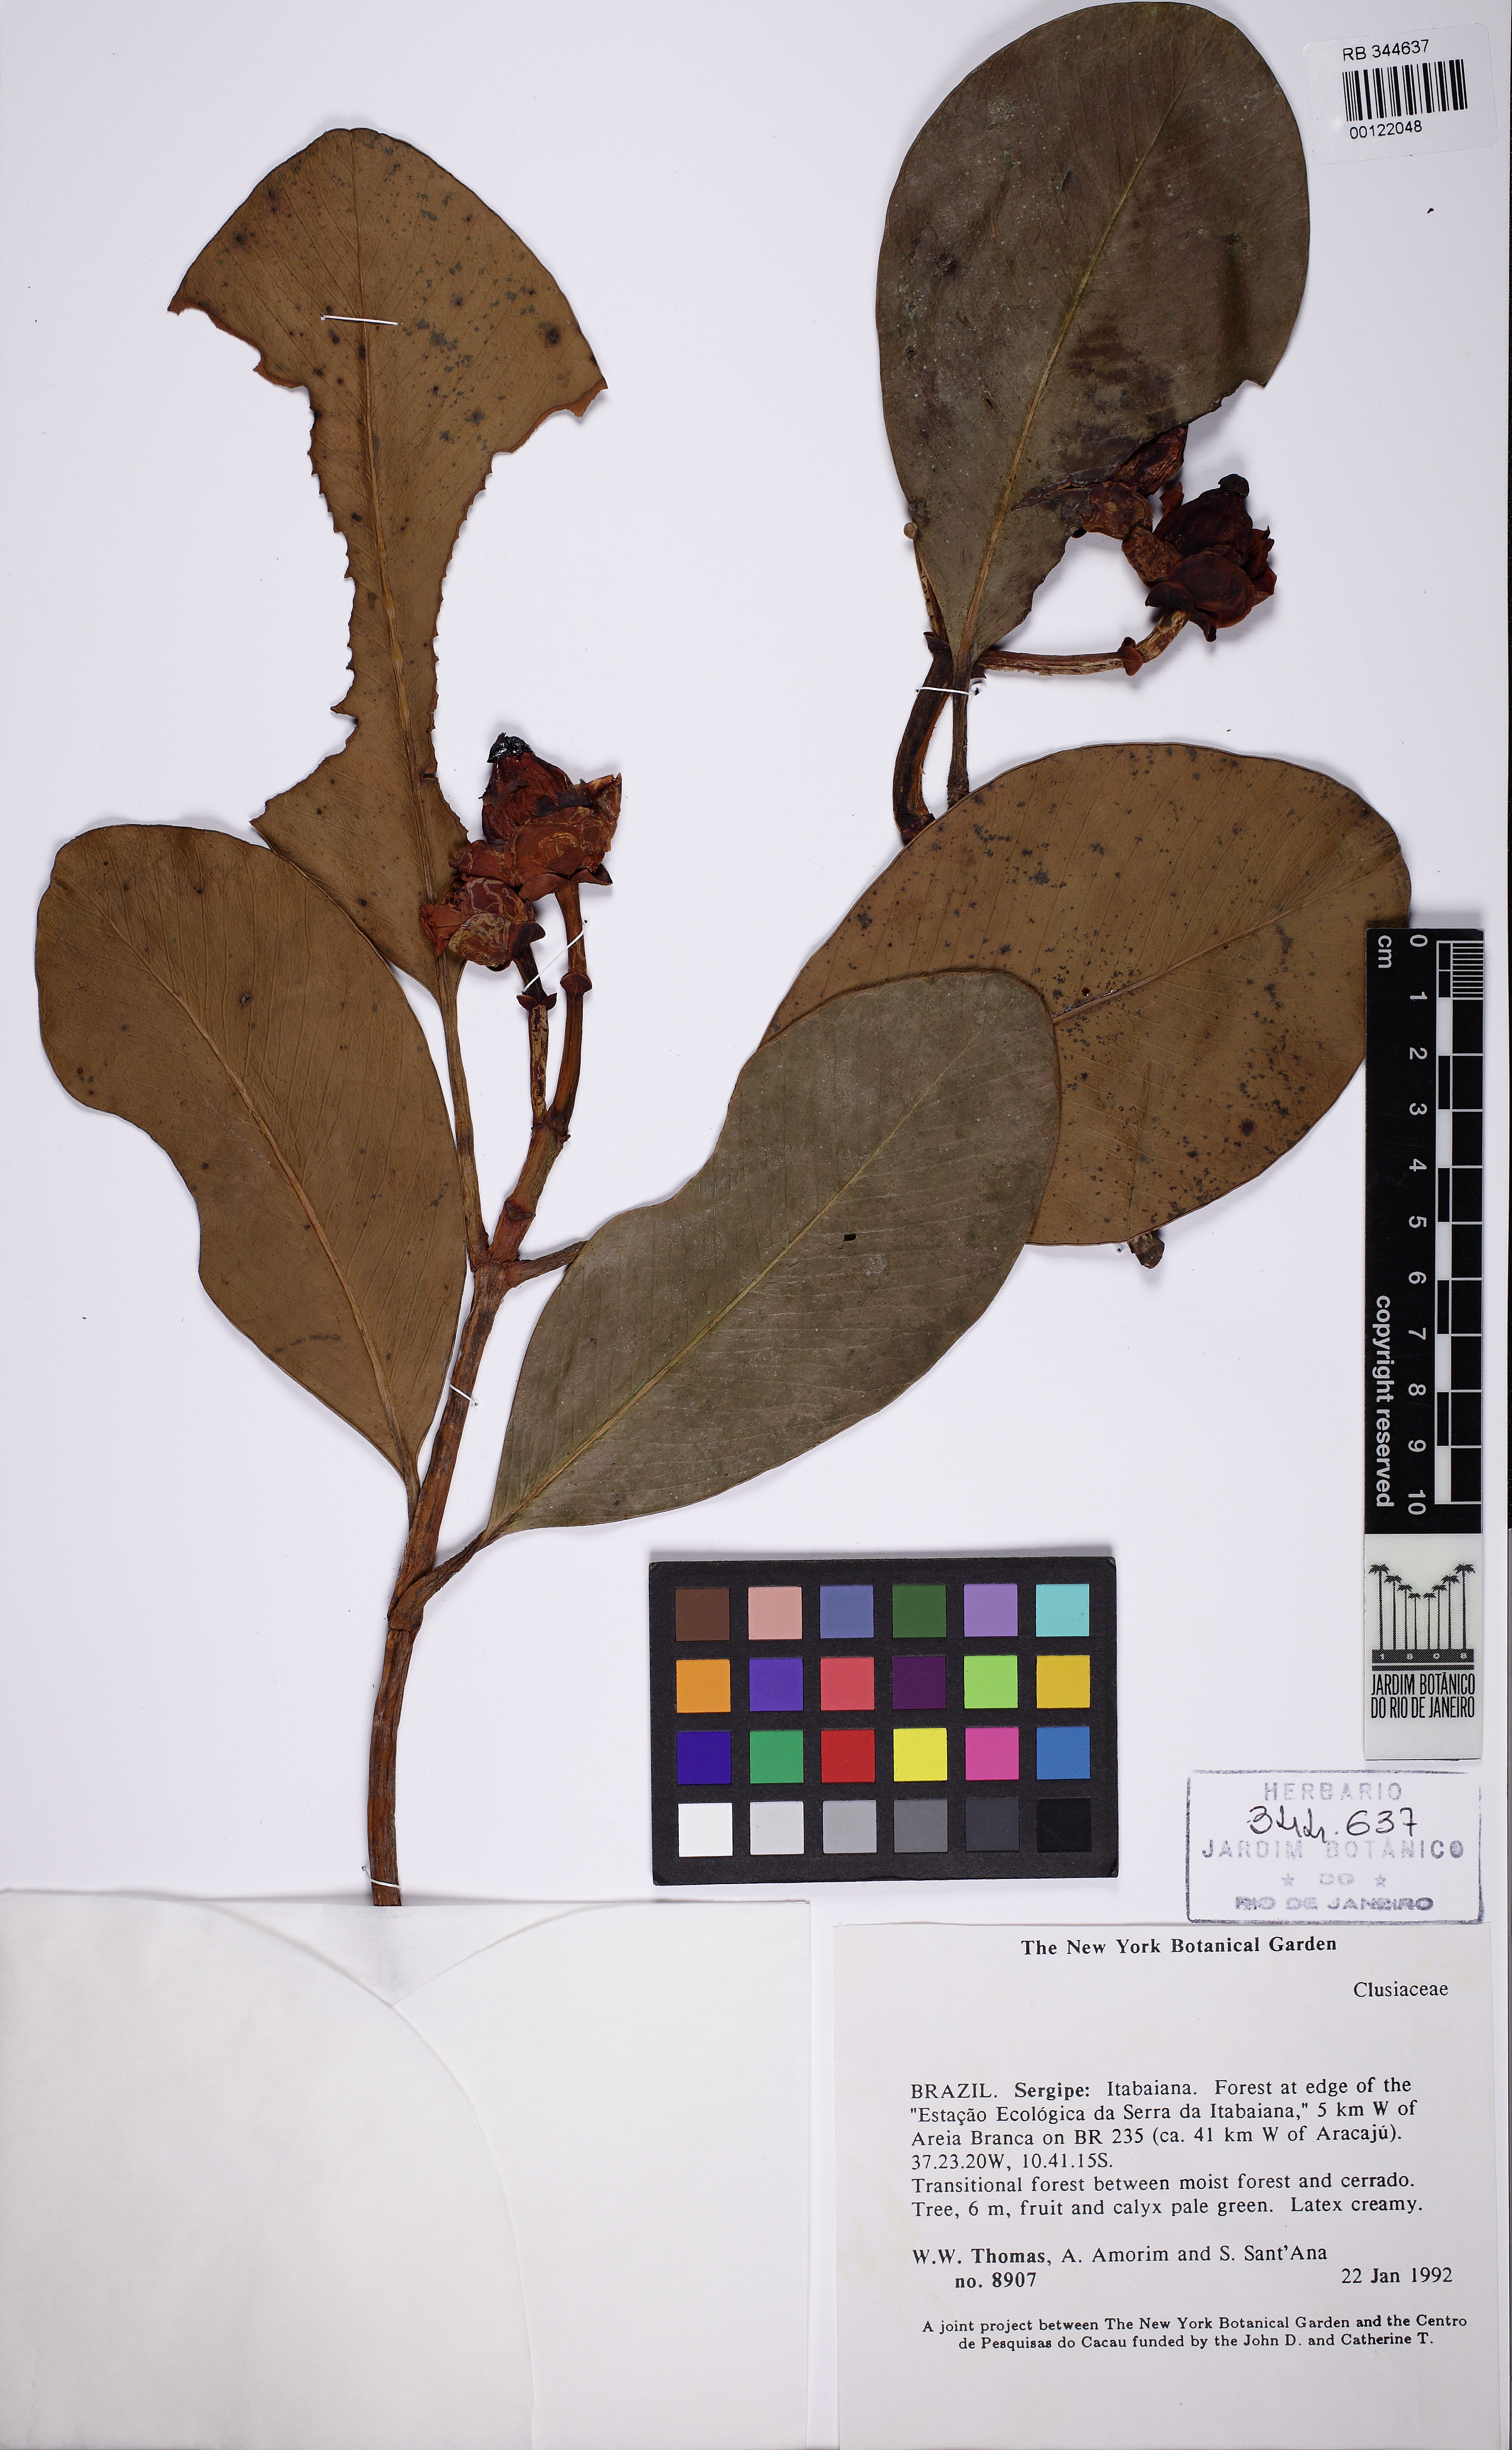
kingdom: Plantae
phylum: Tracheophyta
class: Magnoliopsida
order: Malpighiales
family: Clusiaceae
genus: Clusia
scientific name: Clusia nemorosa
